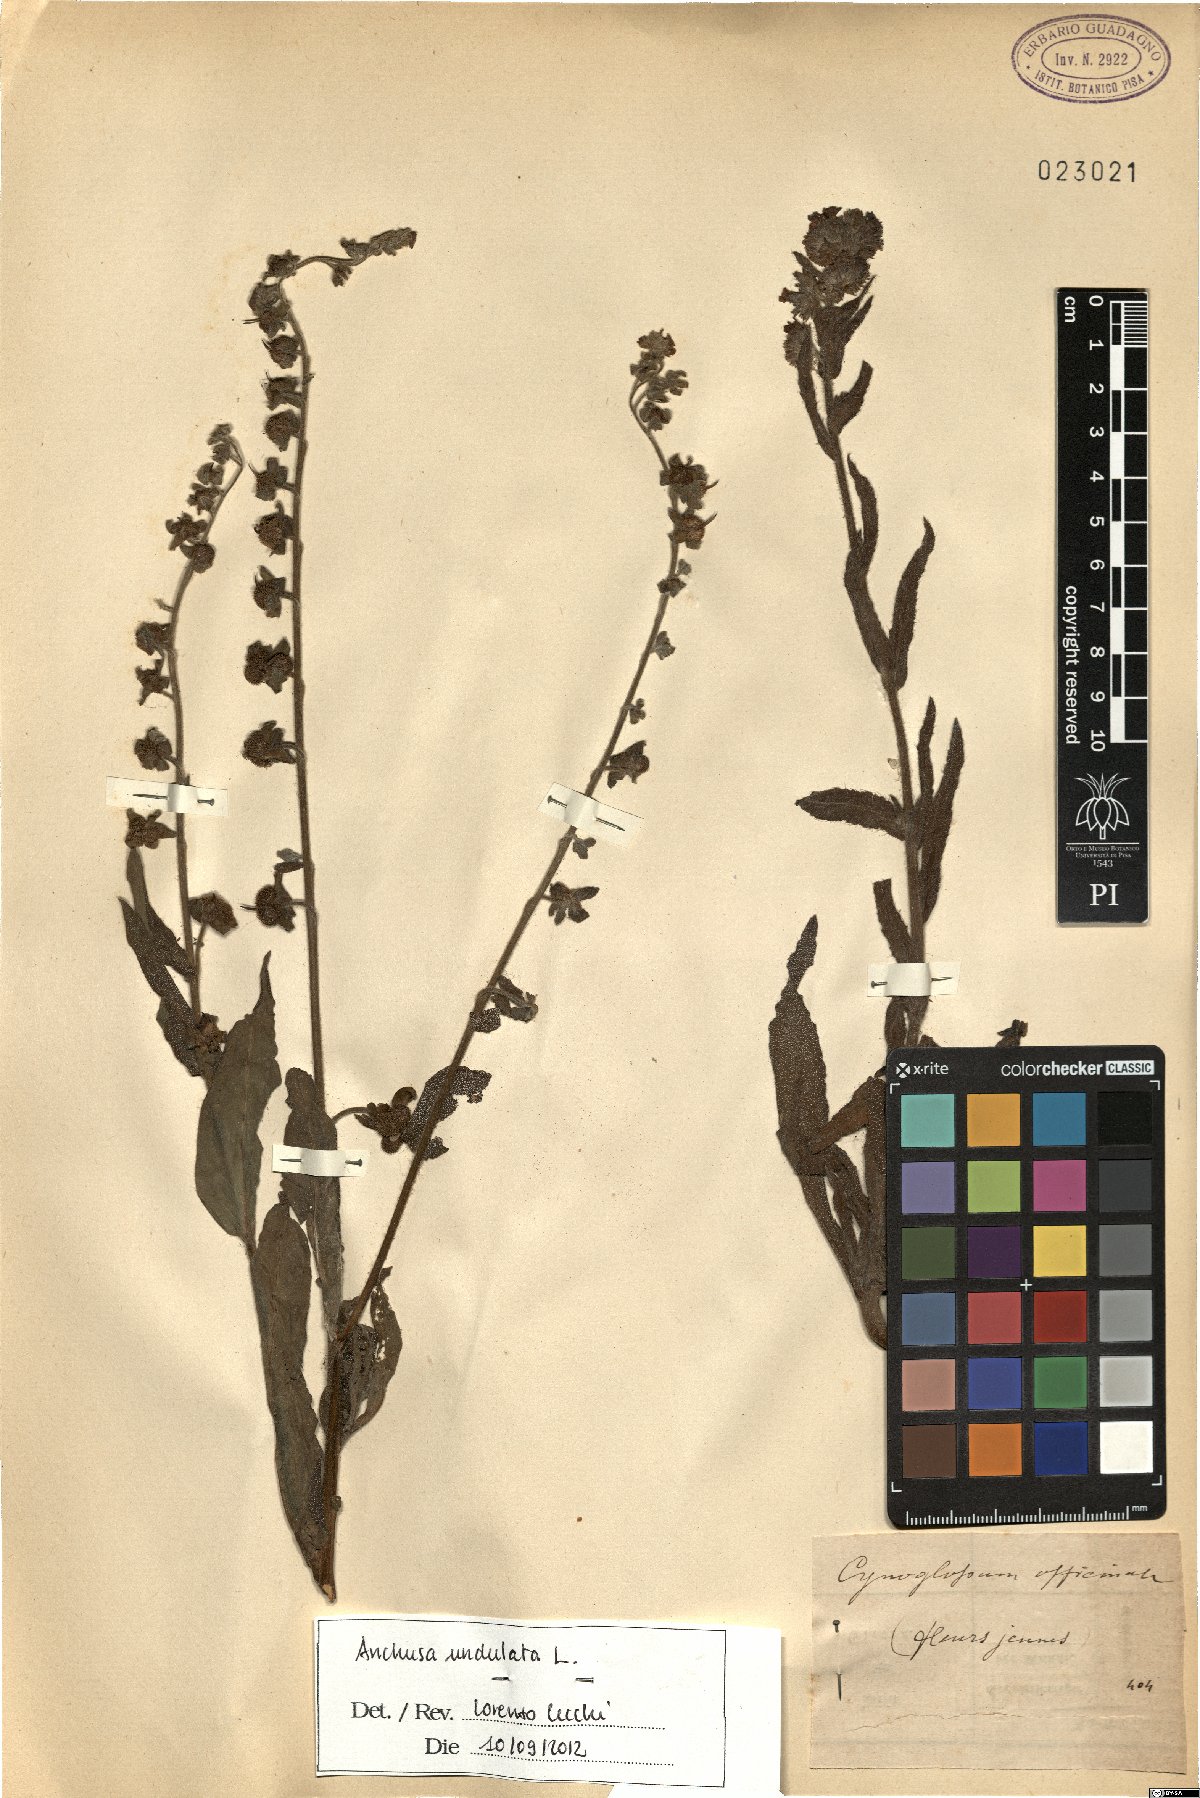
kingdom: Plantae
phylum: Tracheophyta
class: Magnoliopsida
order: Boraginales
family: Boraginaceae
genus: Anchusa
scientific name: Anchusa undulata
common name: Undulate alkanet
